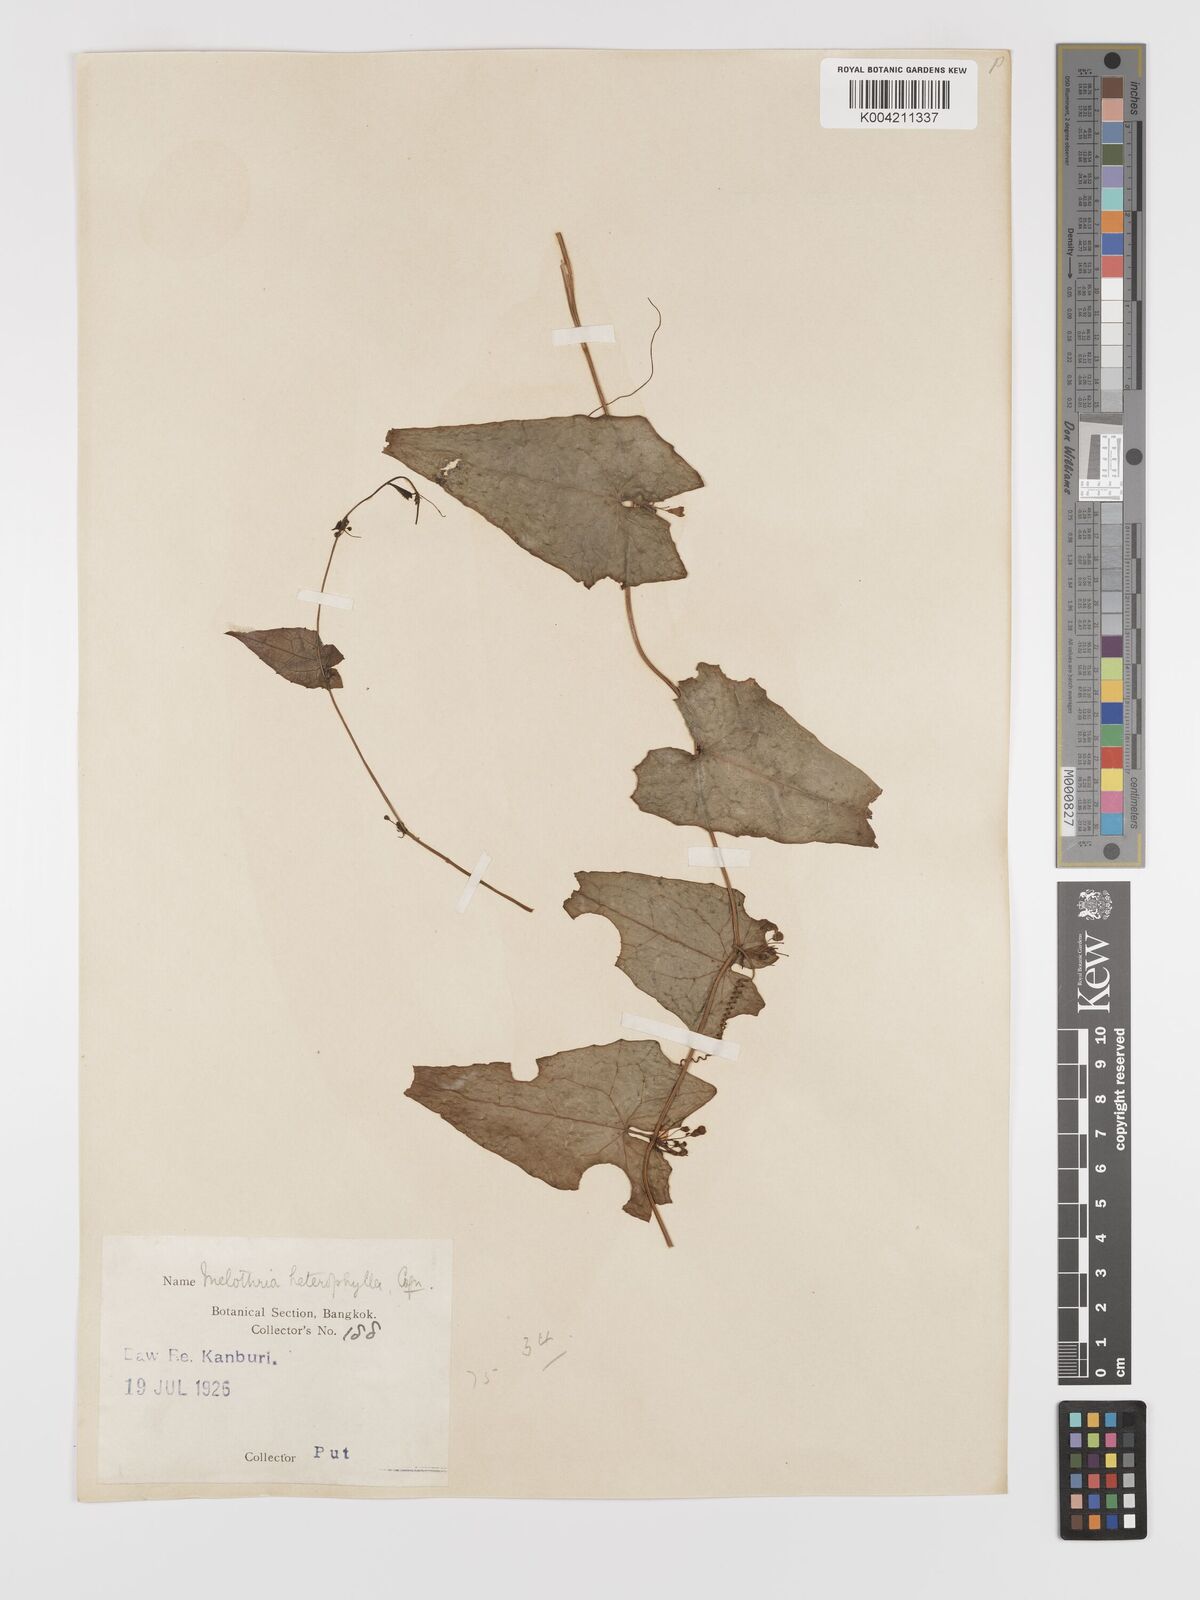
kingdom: Plantae
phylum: Tracheophyta
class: Magnoliopsida
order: Cucurbitales
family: Cucurbitaceae
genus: Solena
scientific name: Solena amplexicaulis
